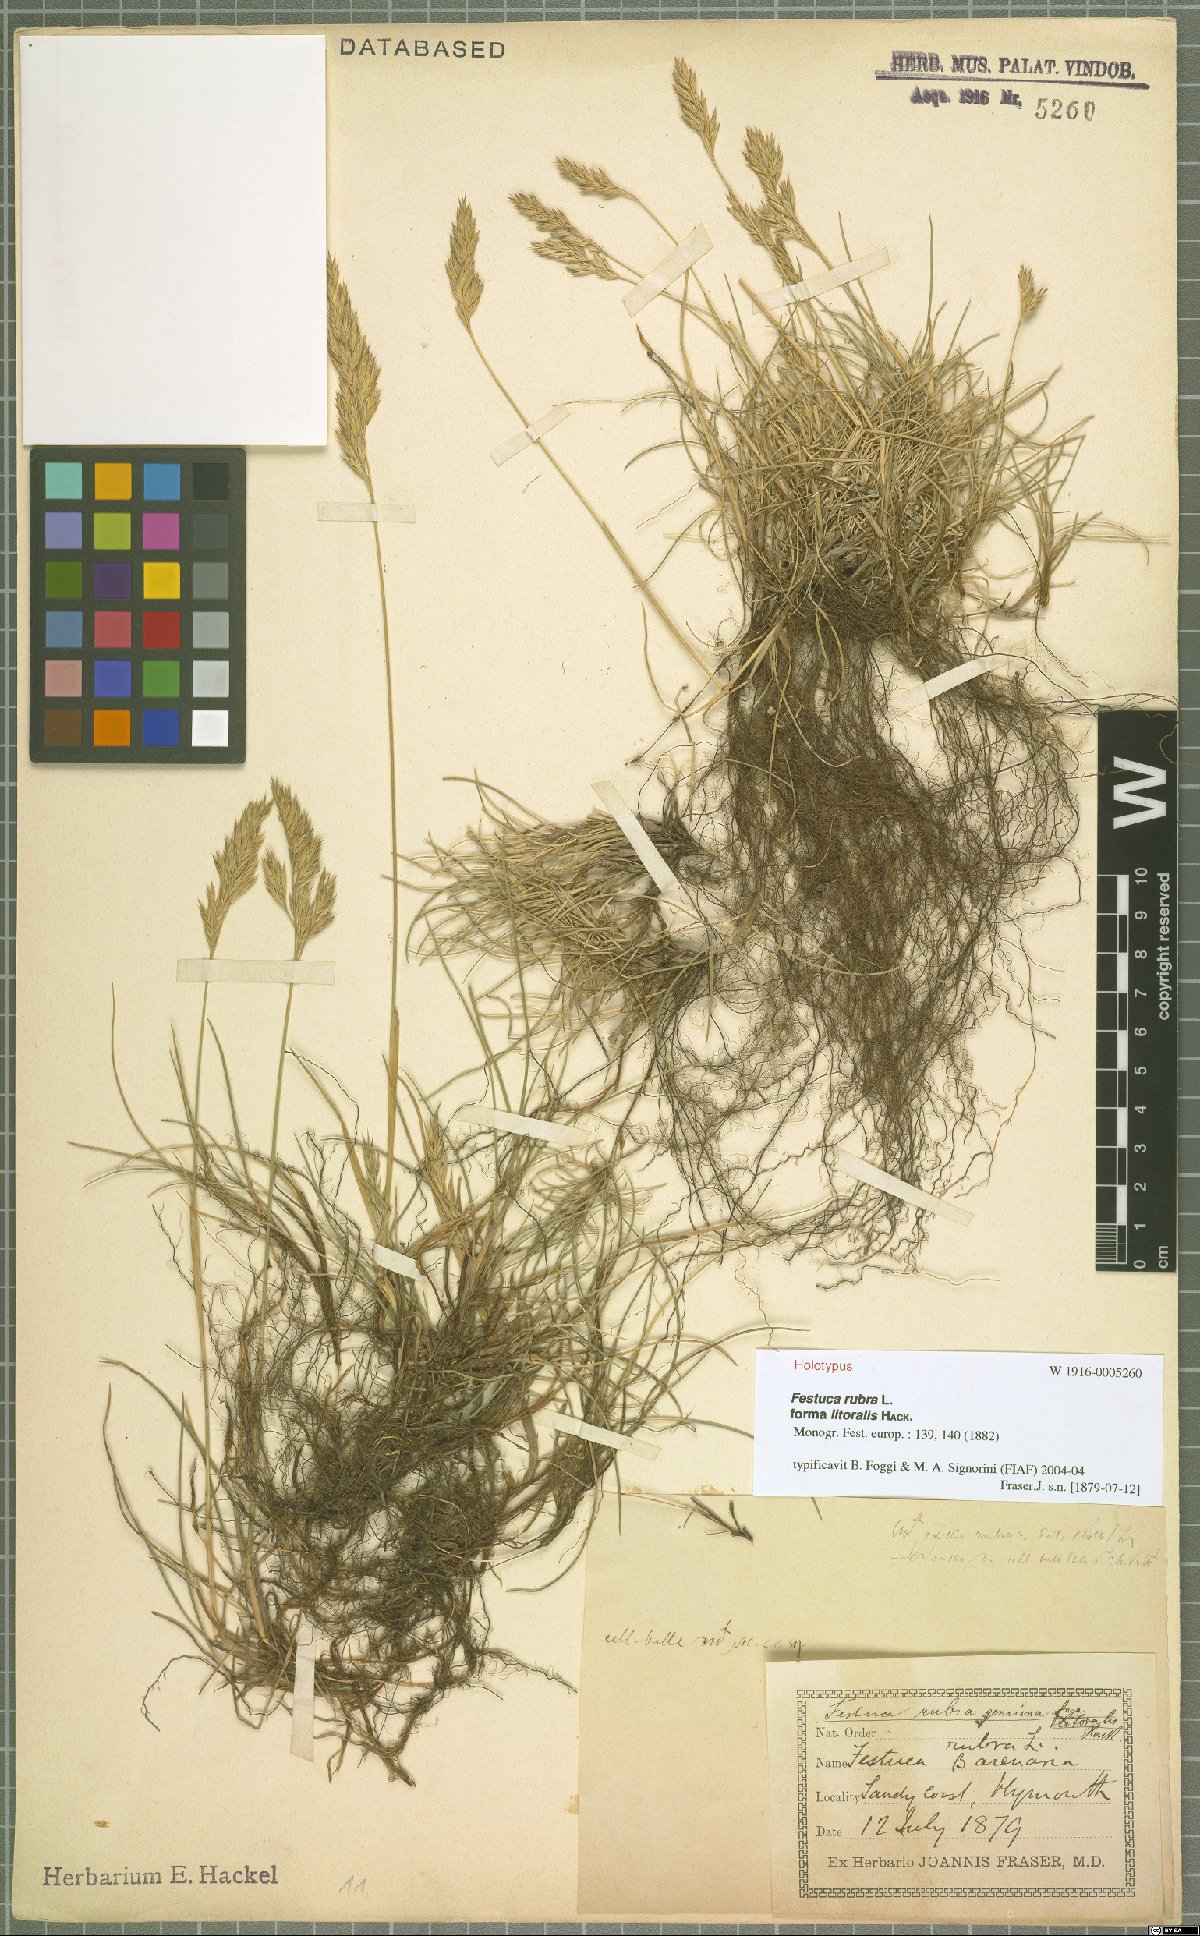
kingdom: Plantae
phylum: Tracheophyta
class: Liliopsida
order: Poales
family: Poaceae
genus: Festuca
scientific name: Festuca rubra
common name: Red fescue
